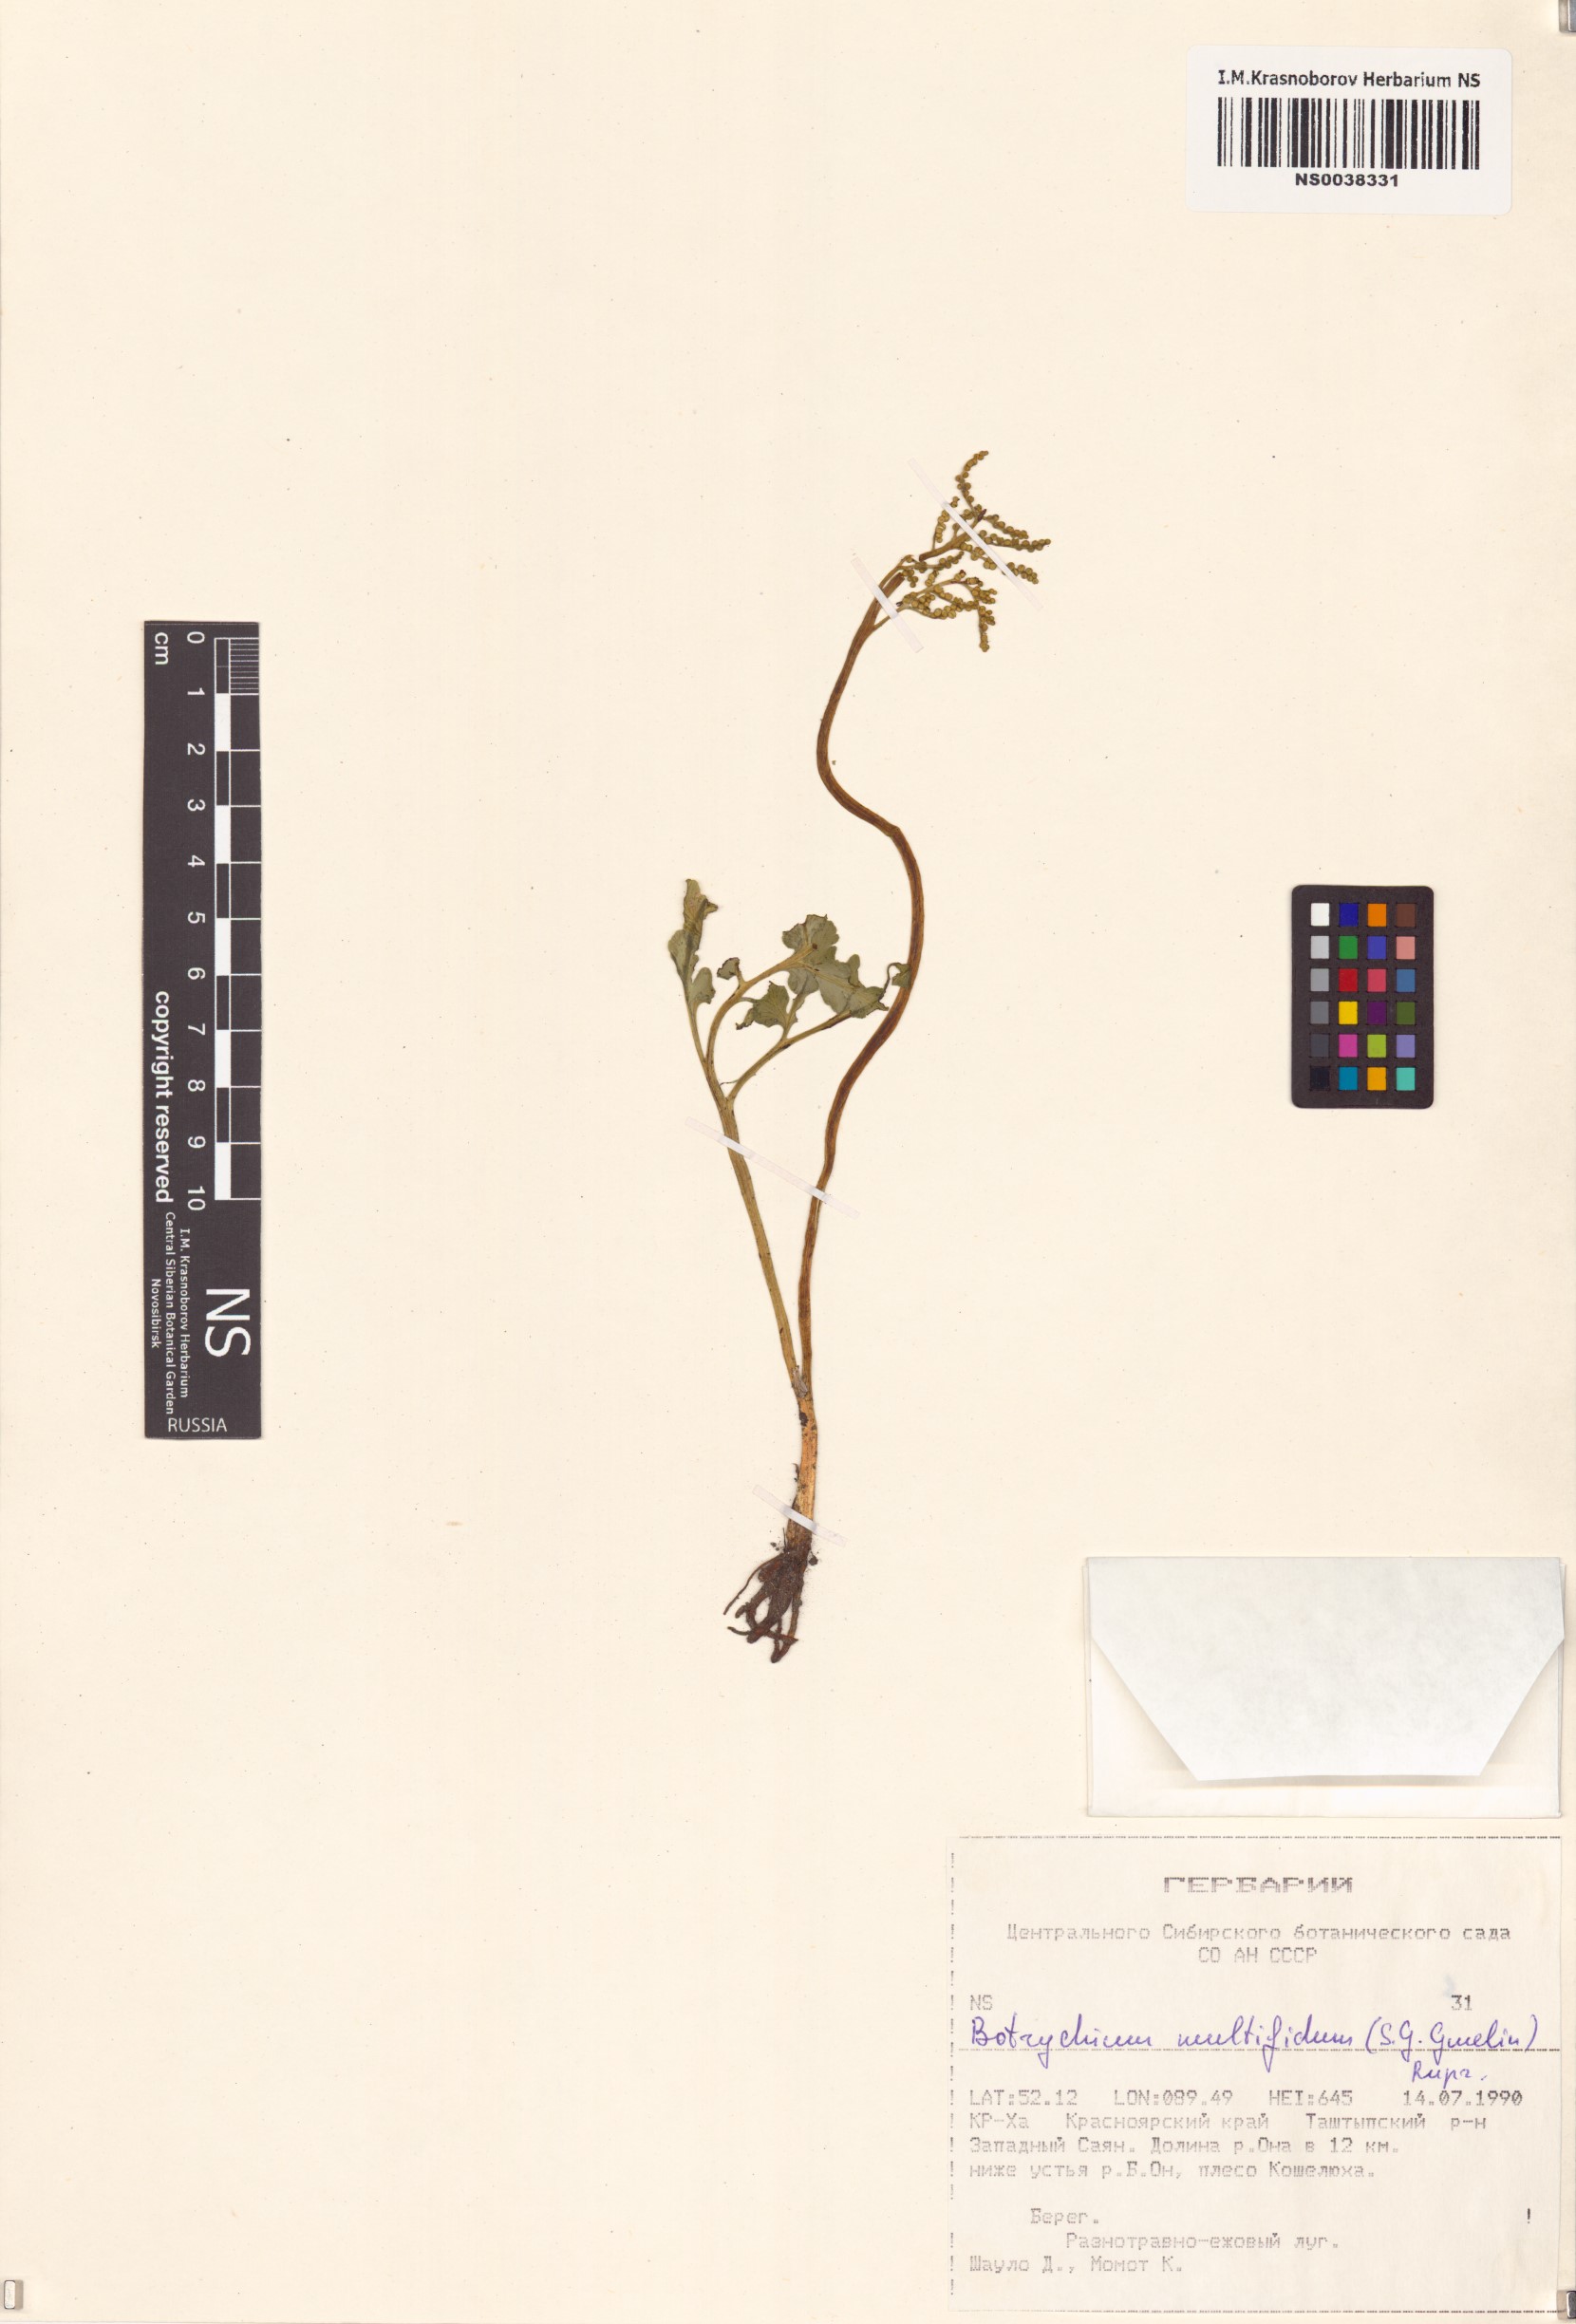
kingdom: Plantae
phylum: Tracheophyta
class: Polypodiopsida
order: Ophioglossales
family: Ophioglossaceae
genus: Sceptridium
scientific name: Sceptridium multifidum
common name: Leathery grape fern
